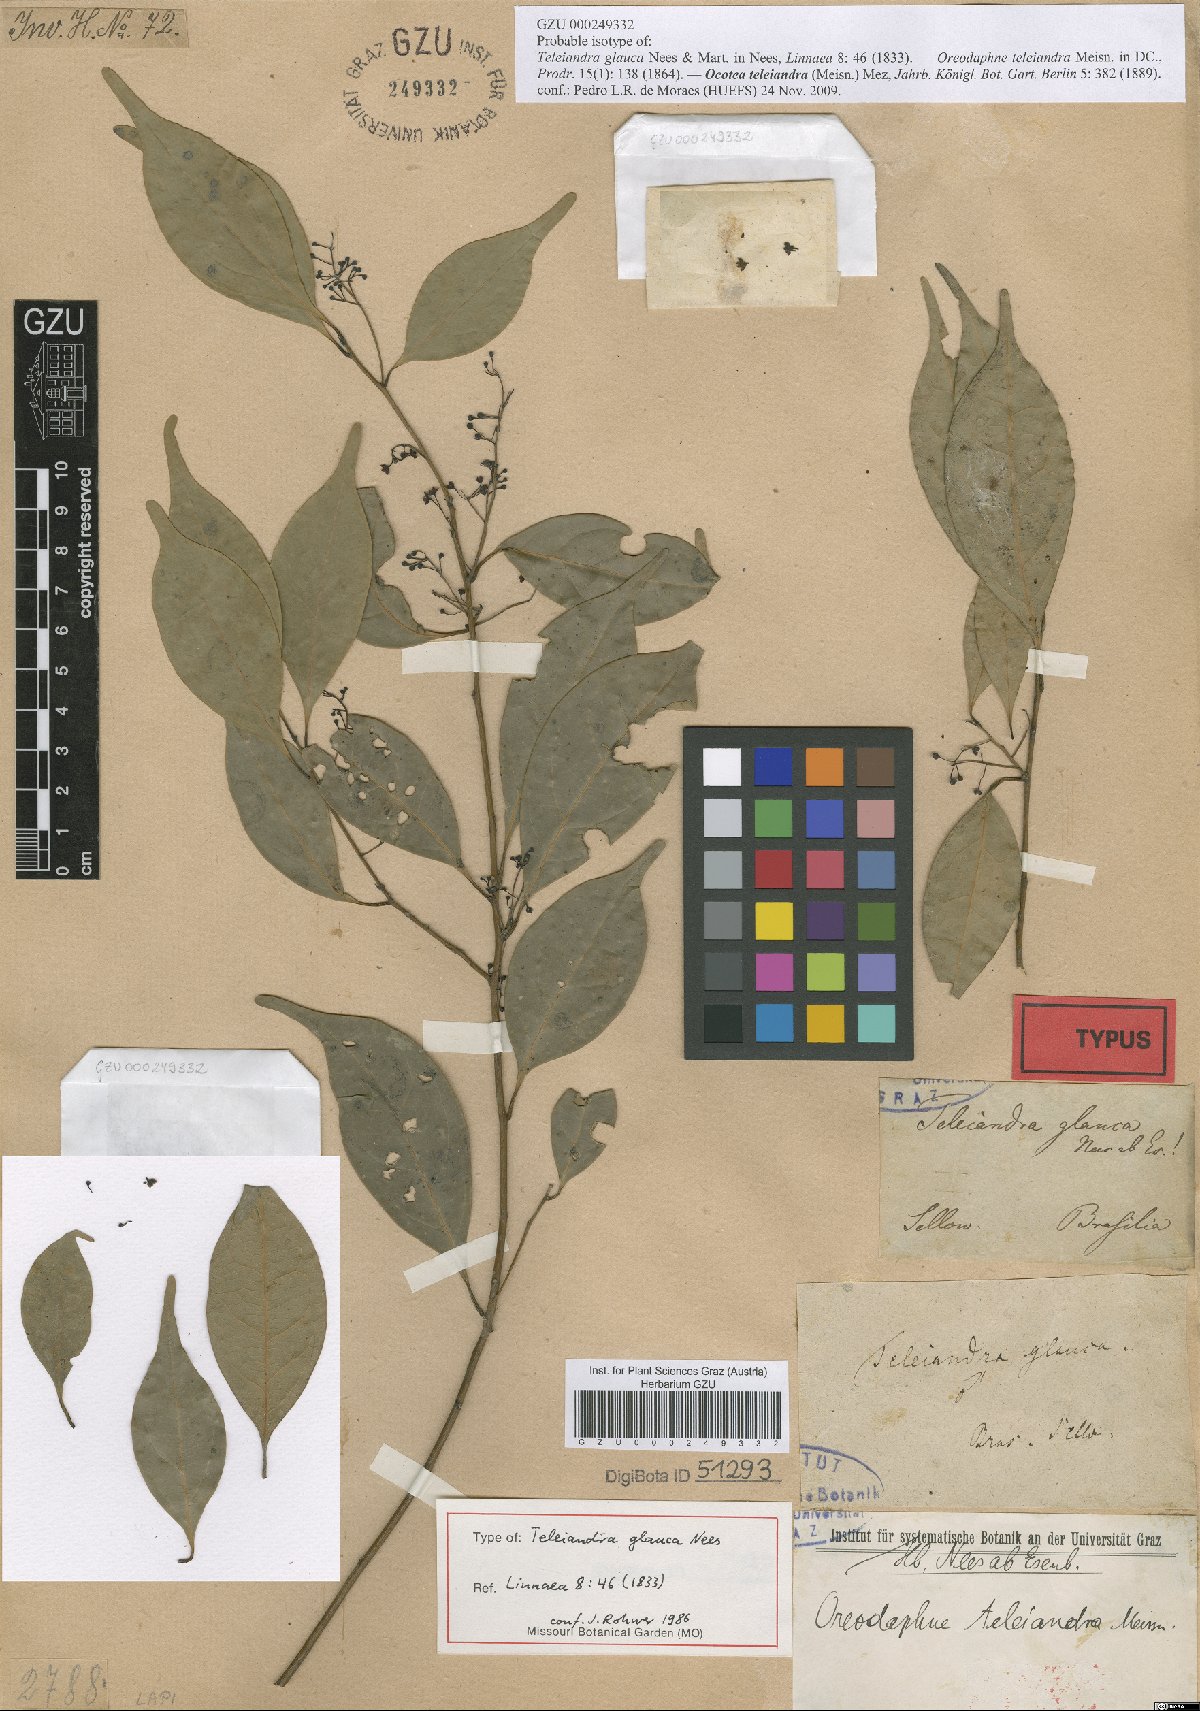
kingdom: Plantae
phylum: Tracheophyta
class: Magnoliopsida
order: Laurales
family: Lauraceae
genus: Ocotea
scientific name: Ocotea teleiandra
